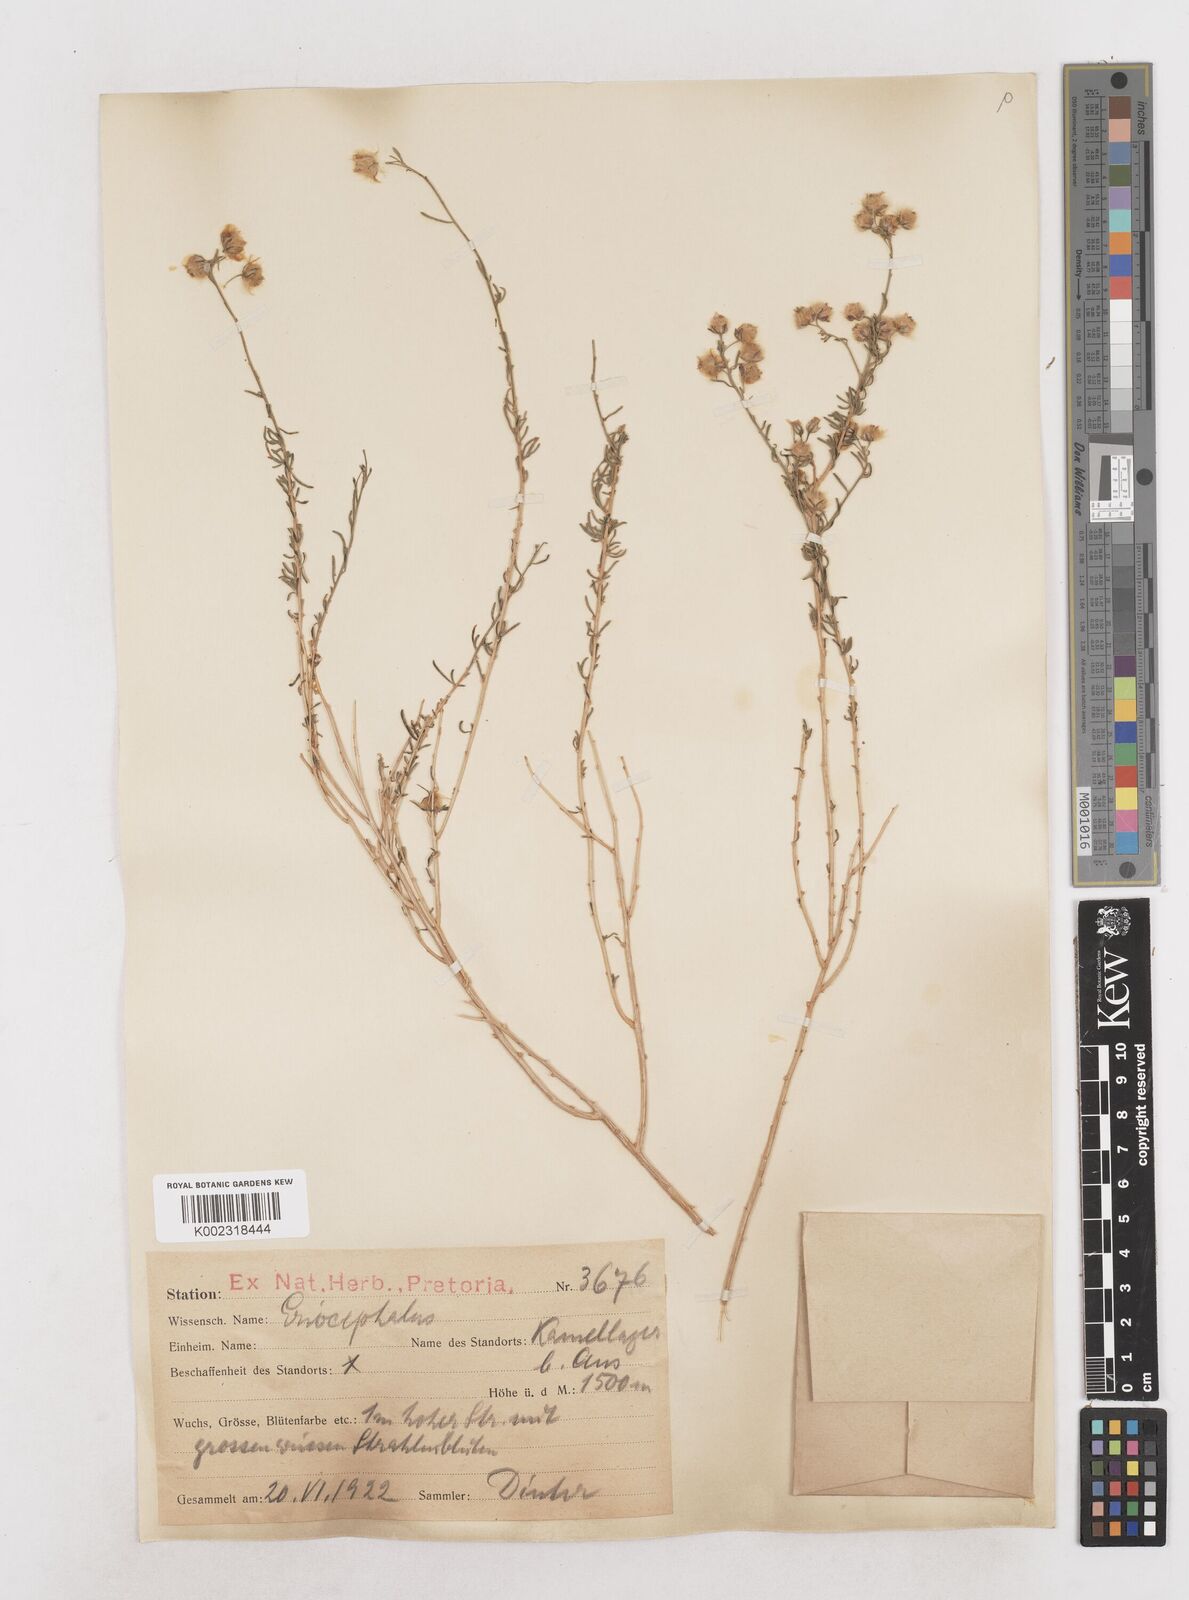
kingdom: Plantae
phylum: Tracheophyta
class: Magnoliopsida
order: Asterales
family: Asteraceae
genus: Eriocephalus
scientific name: Eriocephalus
